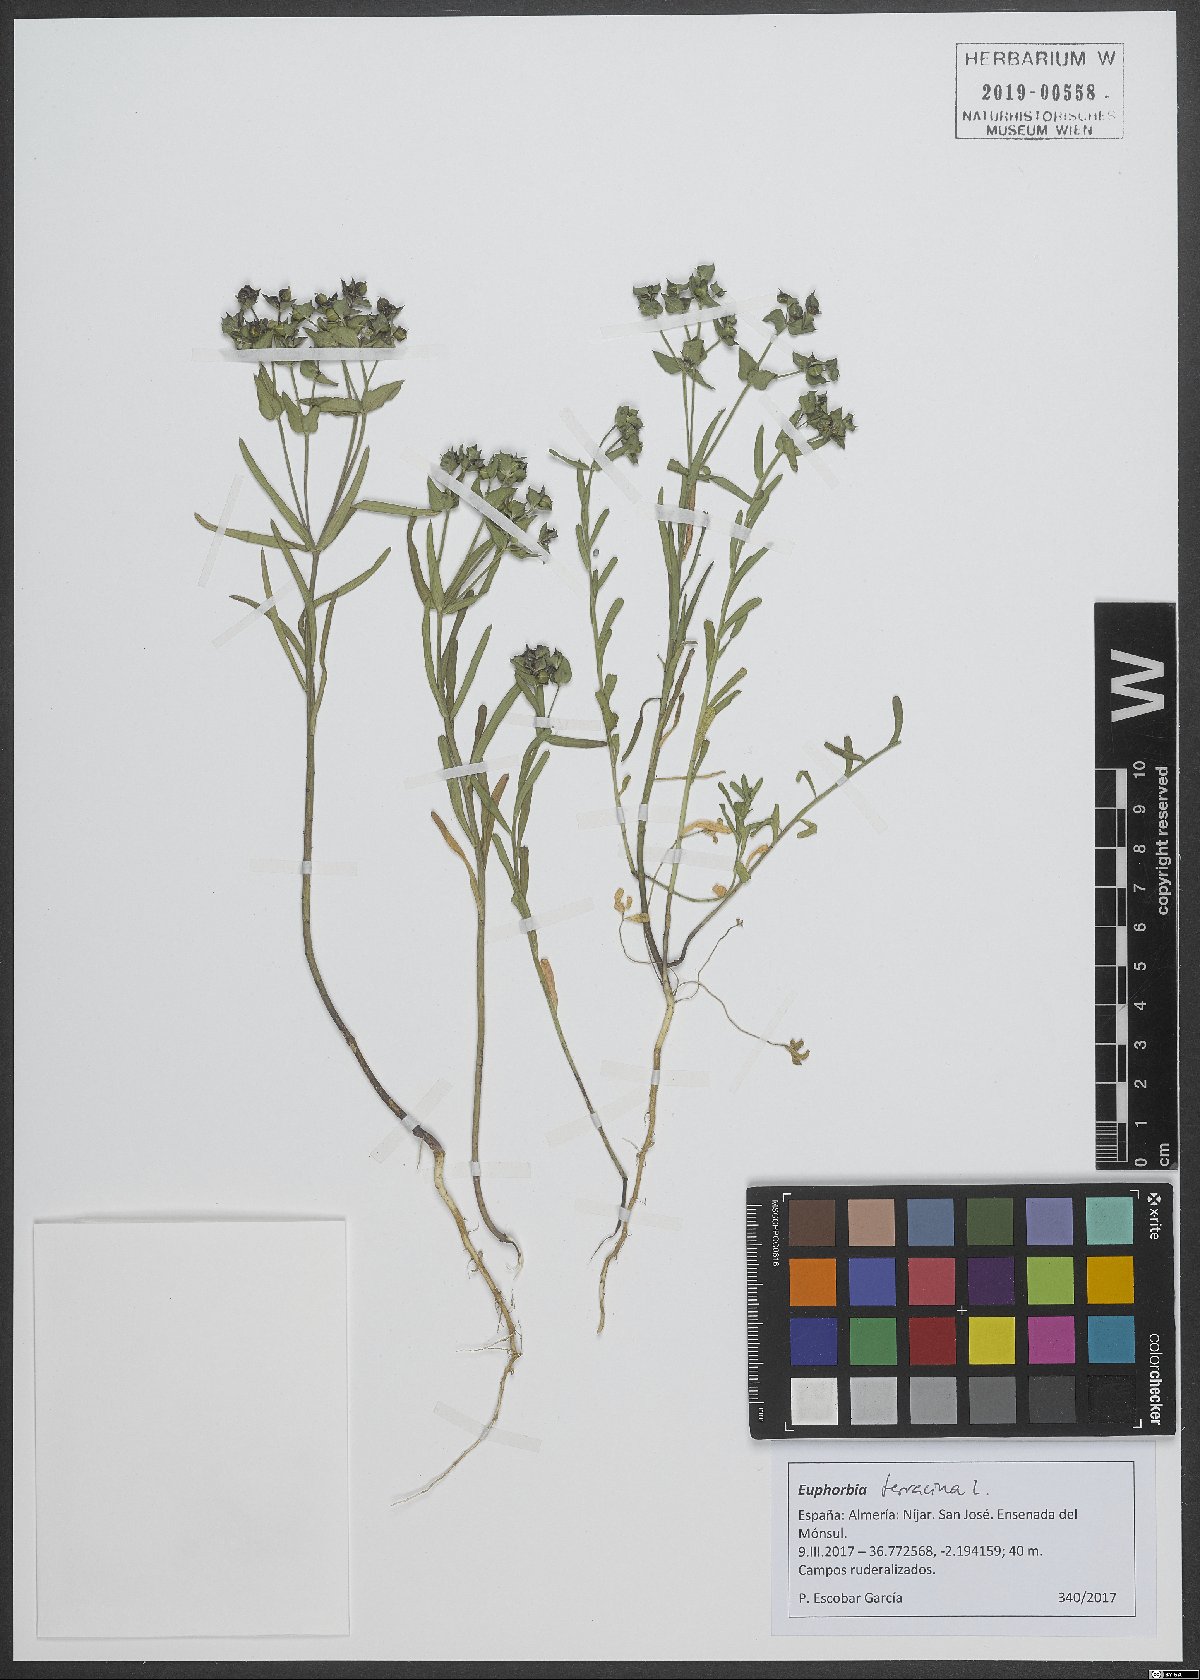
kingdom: Plantae
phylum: Tracheophyta
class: Magnoliopsida
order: Malpighiales
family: Euphorbiaceae
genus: Euphorbia
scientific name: Euphorbia terracina
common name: Geraldton carnation weed
